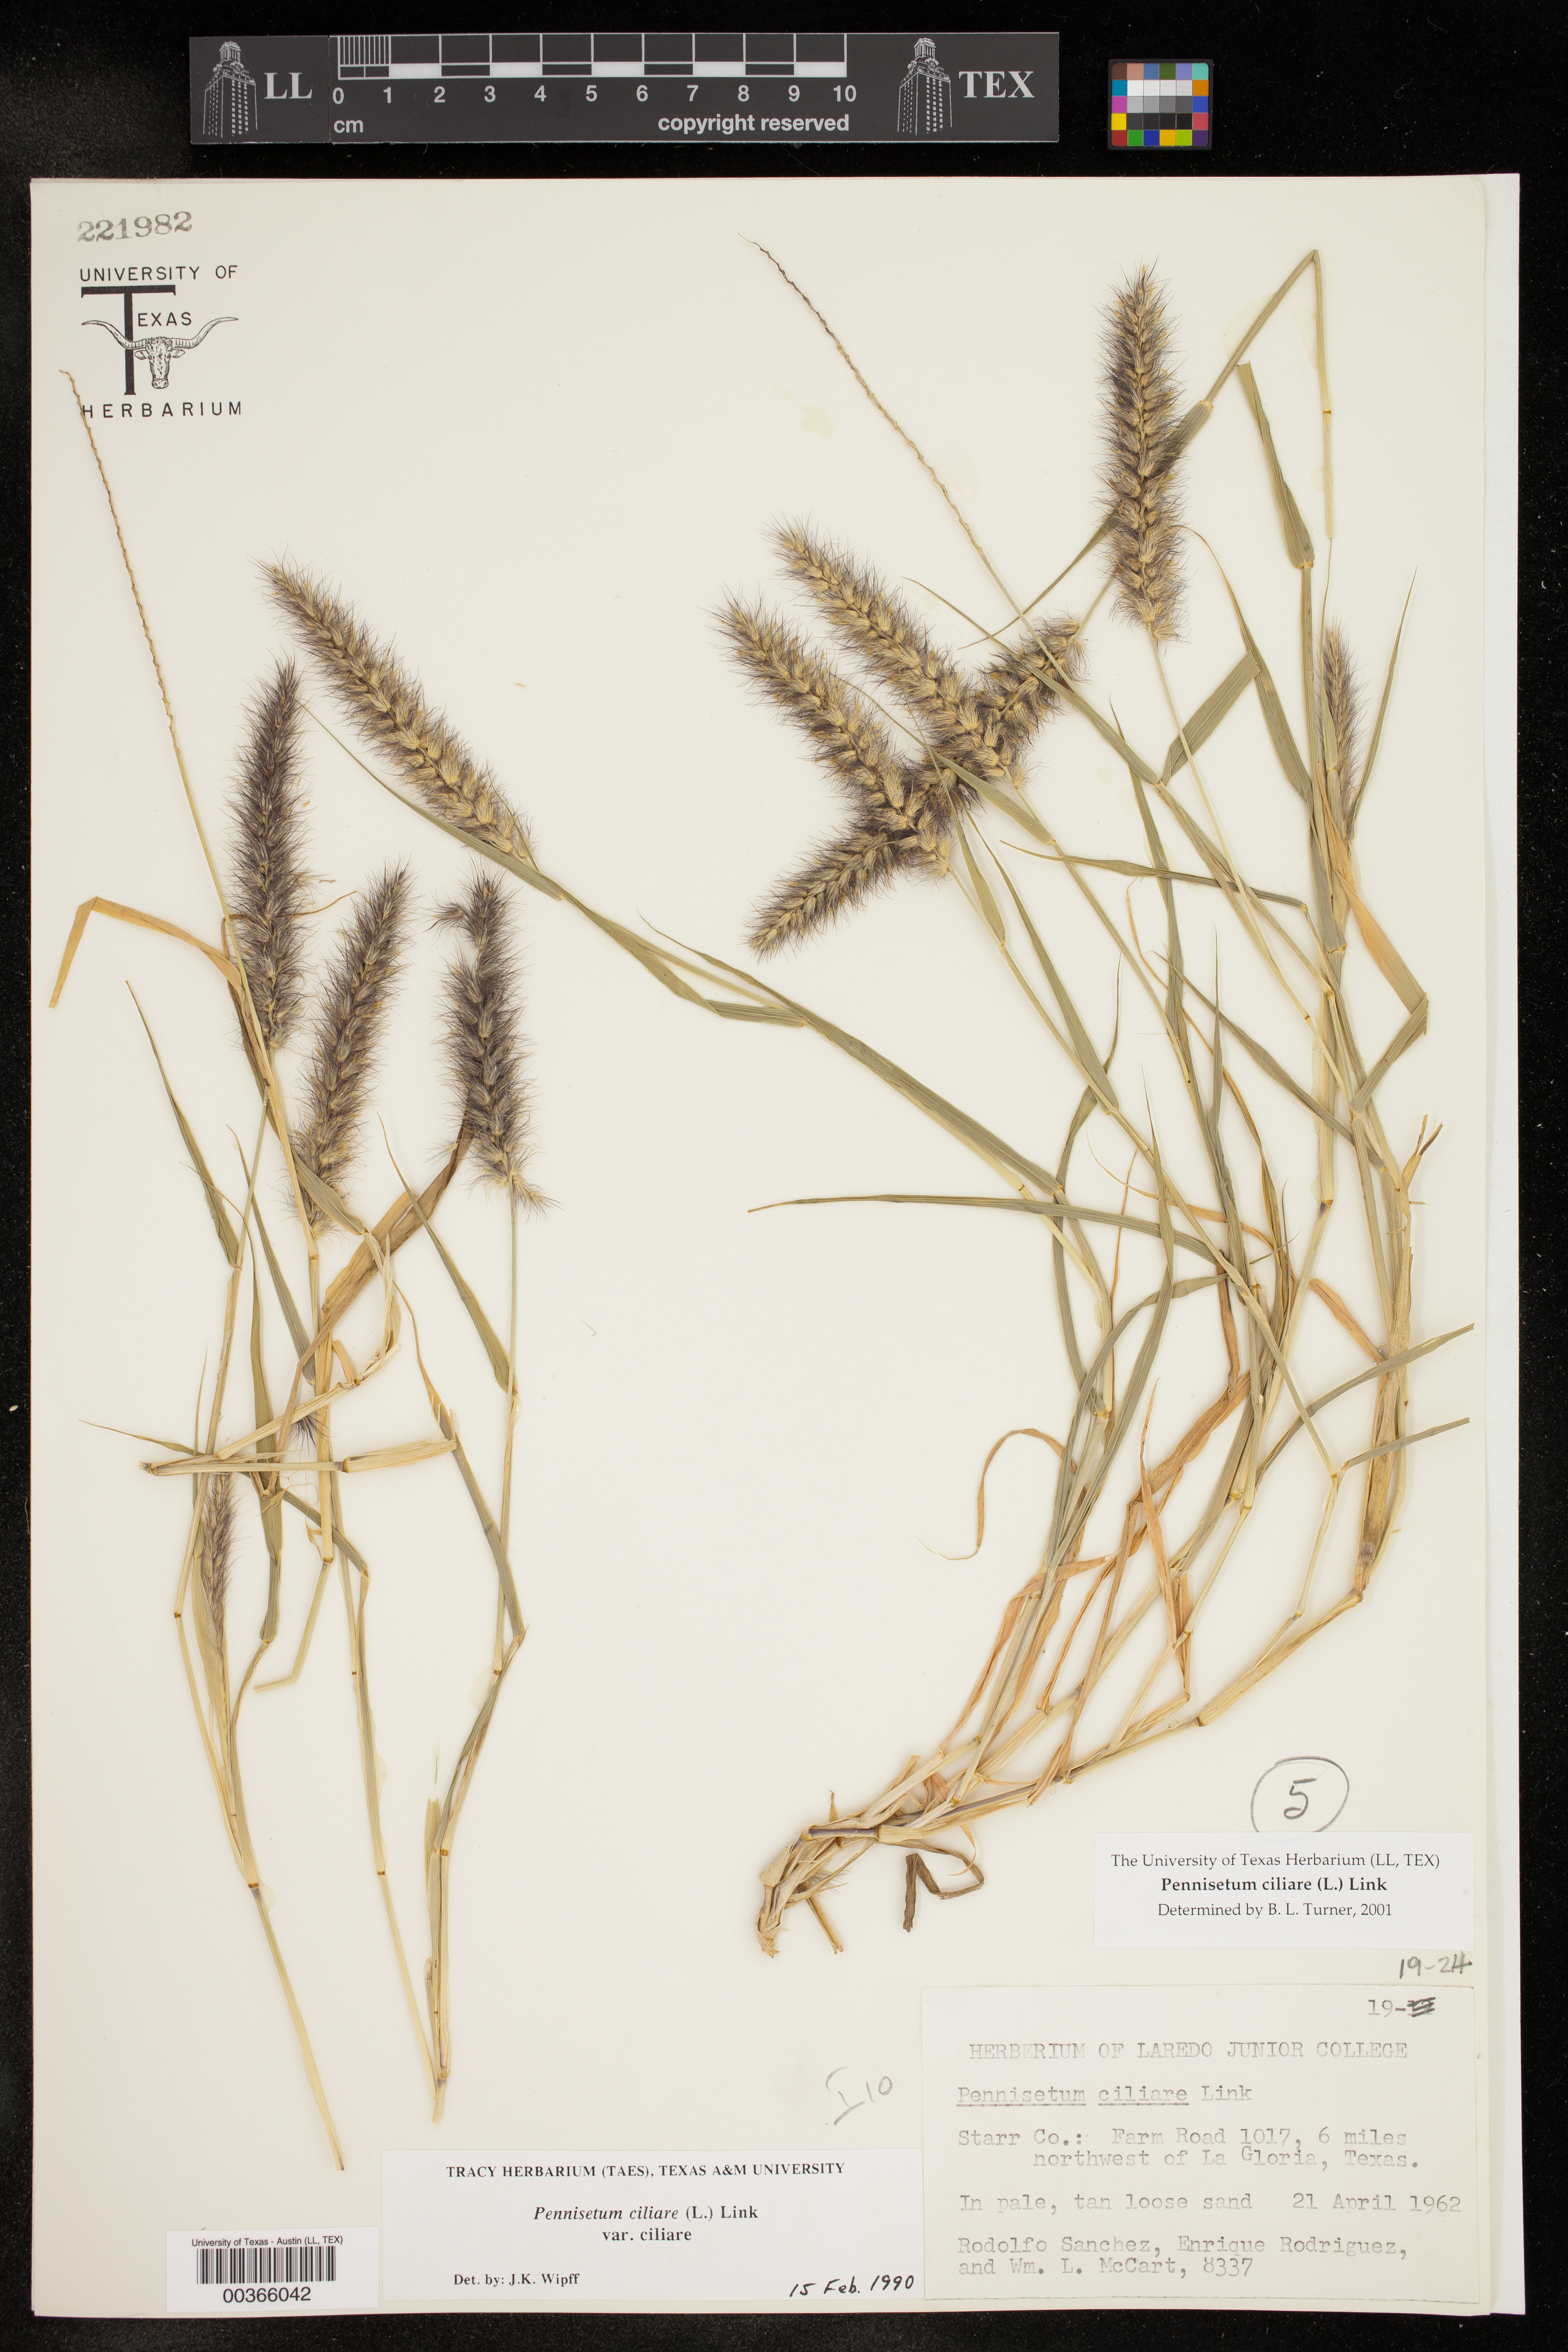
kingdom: Plantae
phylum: Tracheophyta
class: Liliopsida
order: Poales
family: Poaceae
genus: Cenchrus
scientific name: Cenchrus ciliaris
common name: Buffelgrass
